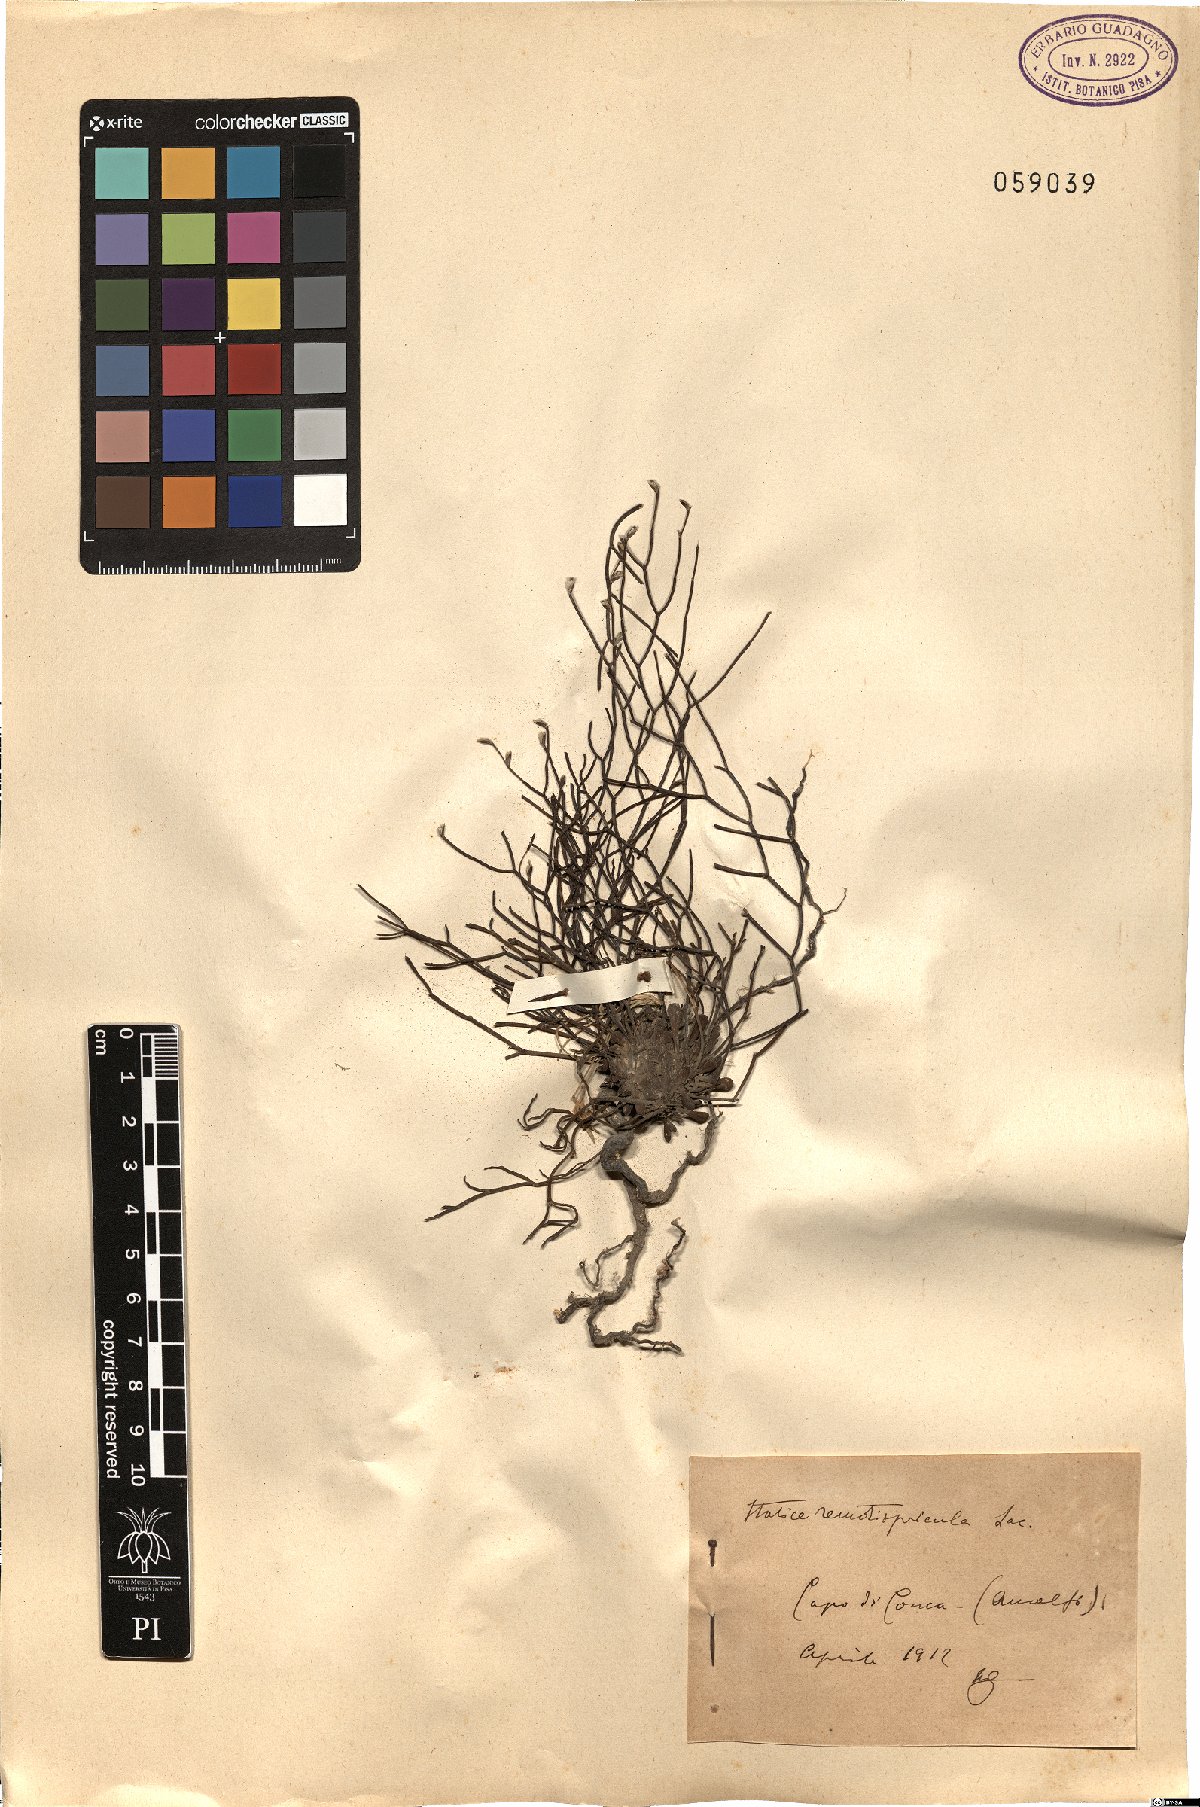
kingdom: Plantae
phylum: Tracheophyta
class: Magnoliopsida
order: Caryophyllales
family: Plumbaginaceae
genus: Limonium
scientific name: Limonium remotispiculum
